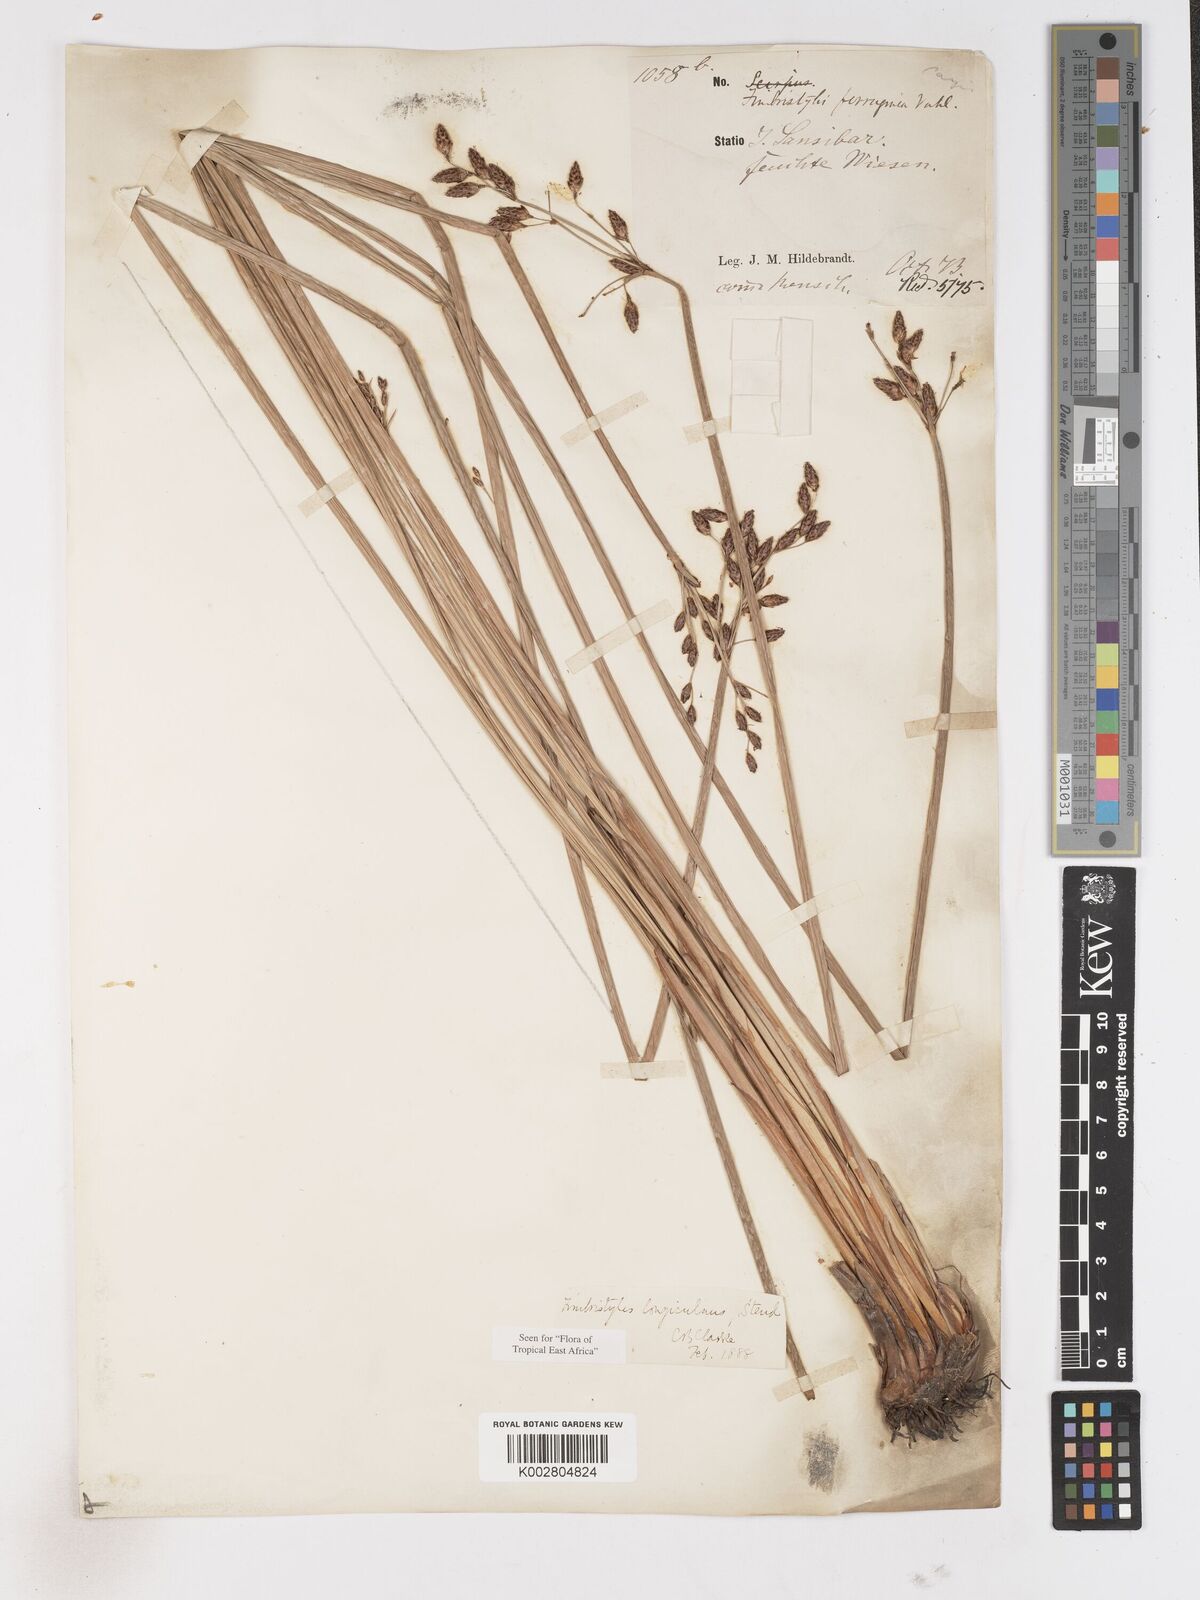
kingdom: Plantae
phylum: Tracheophyta
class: Liliopsida
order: Poales
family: Cyperaceae
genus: Fimbristylis
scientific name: Fimbristylis bivalvis
